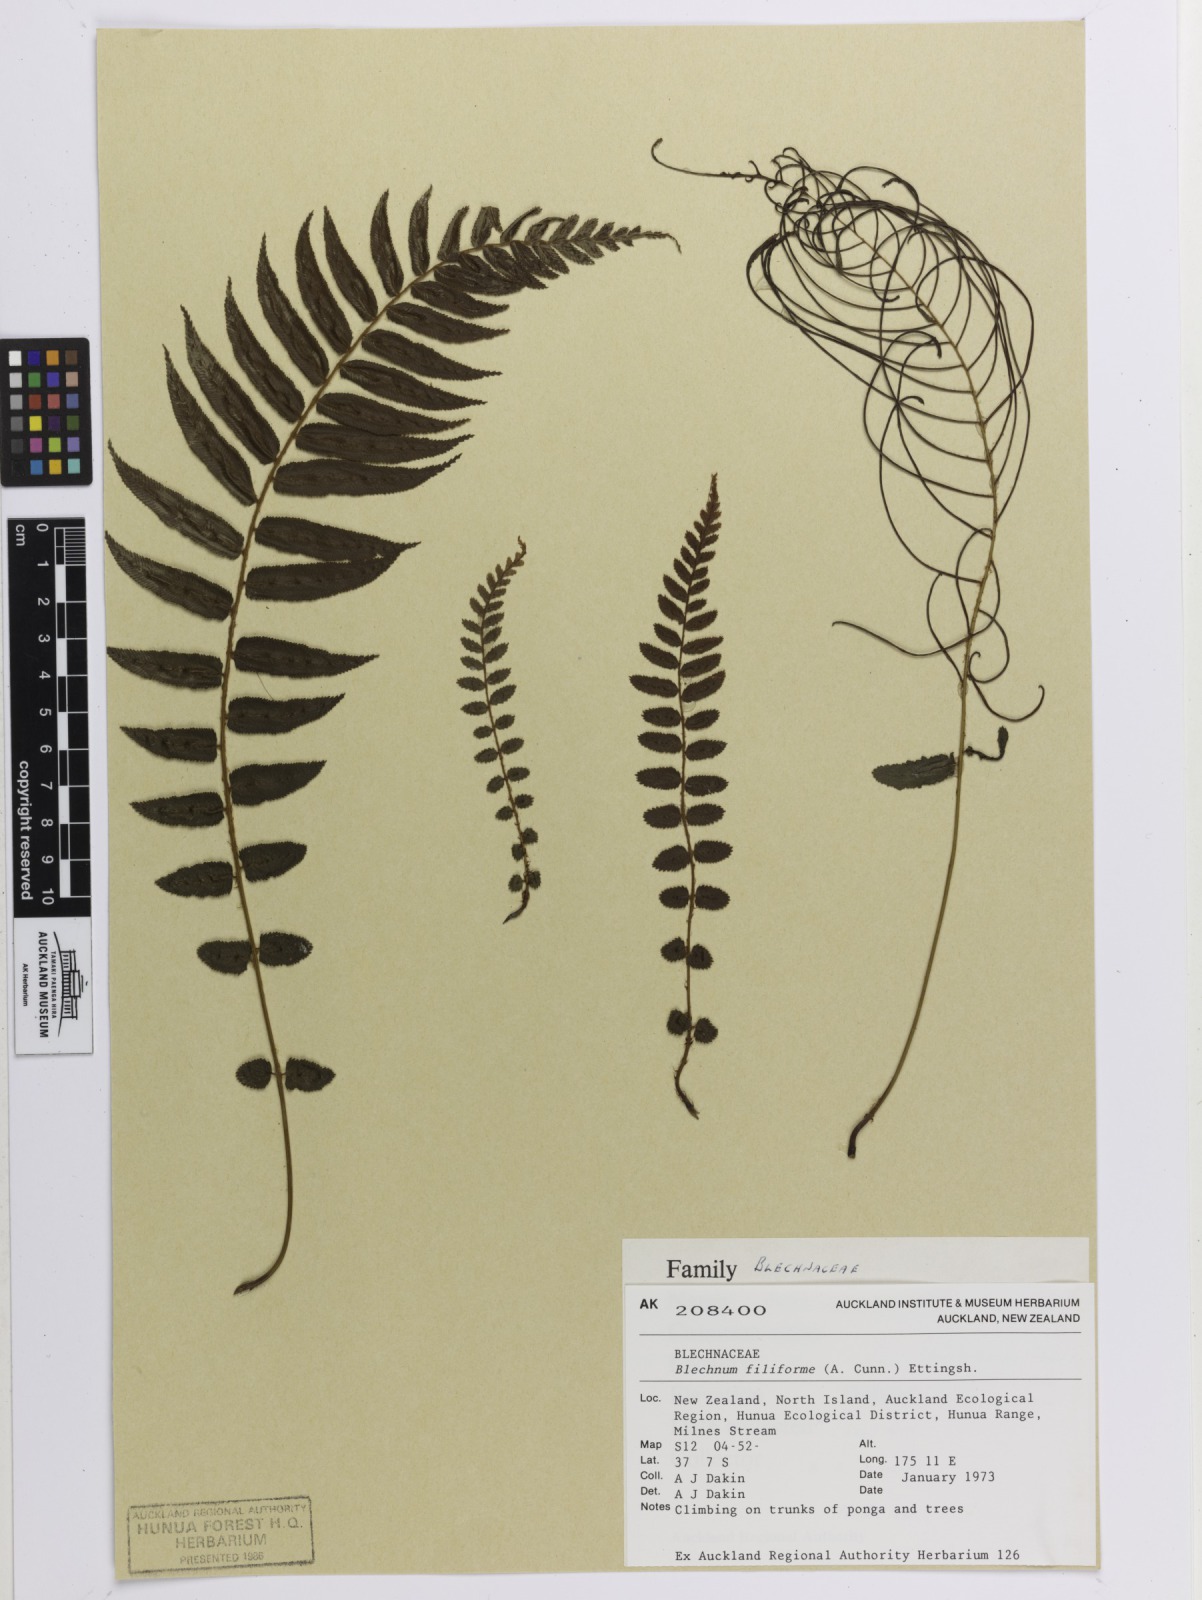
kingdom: Plantae
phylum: Tracheophyta
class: Polypodiopsida
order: Polypodiales
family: Blechnaceae
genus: Icarus
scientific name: Icarus filiformis
